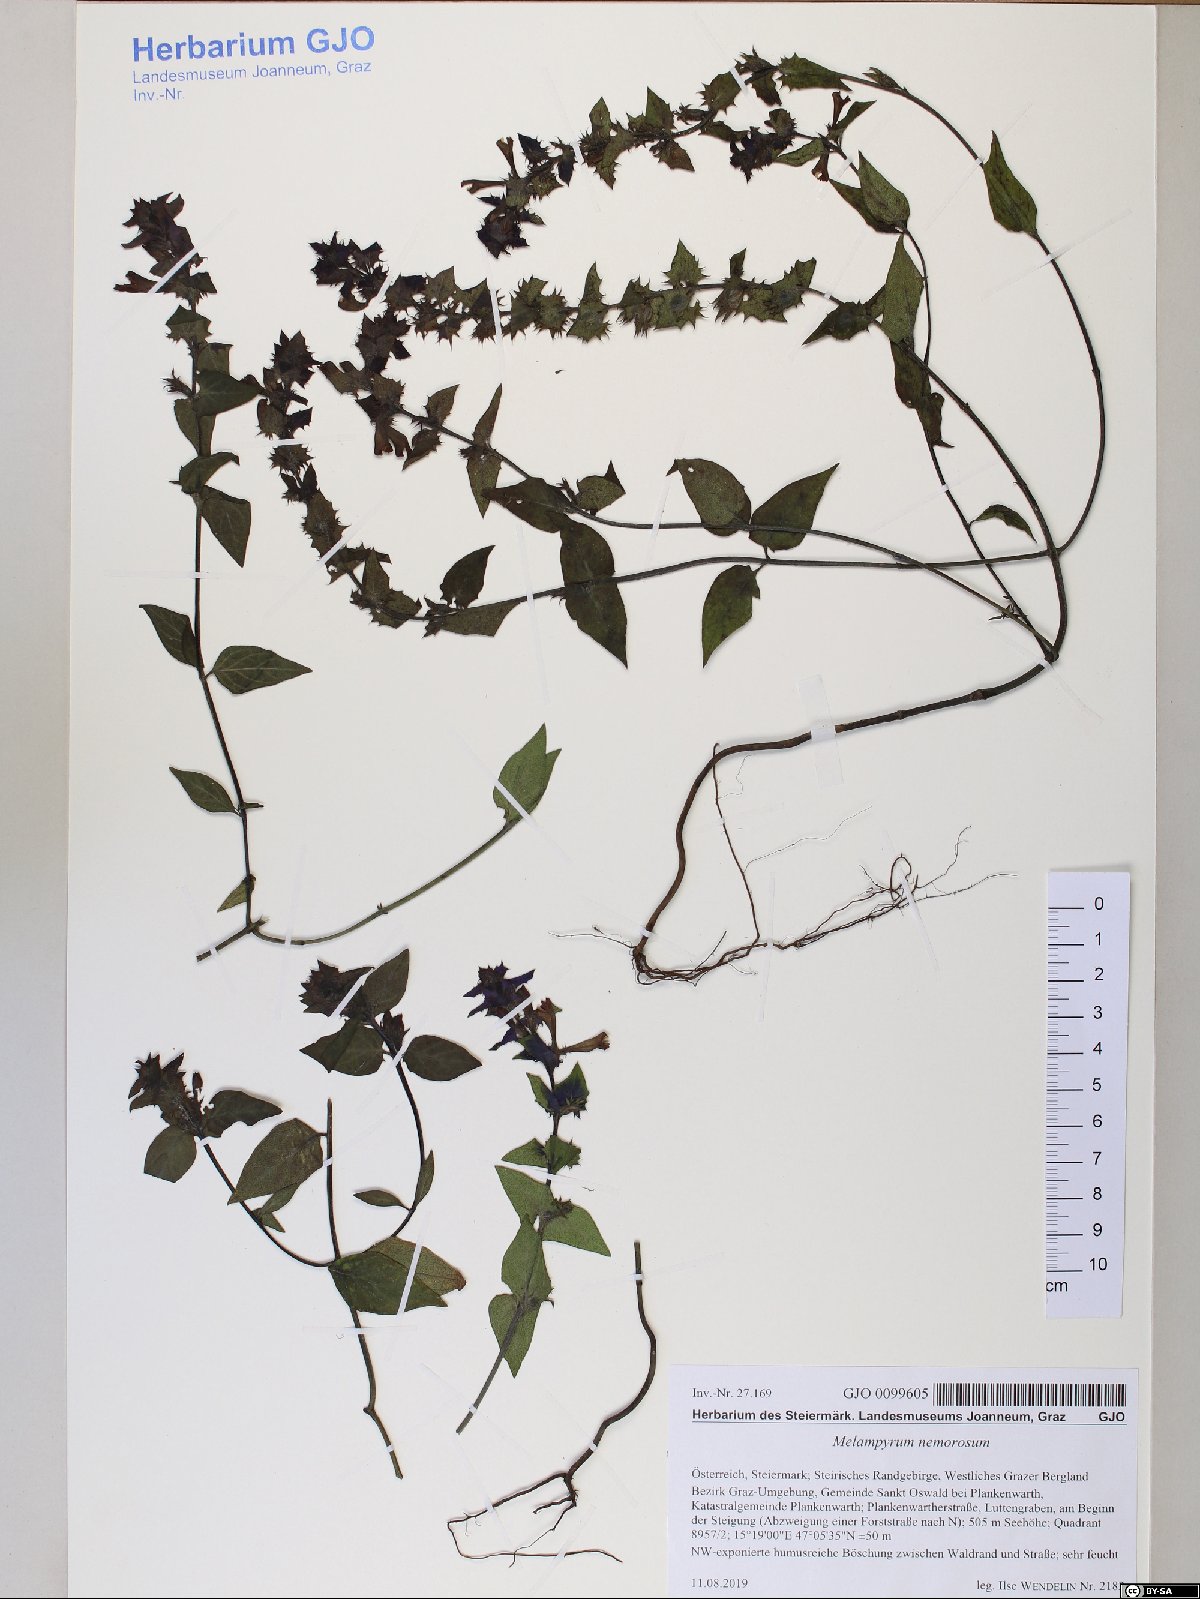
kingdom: Plantae
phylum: Tracheophyta
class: Magnoliopsida
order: Lamiales
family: Orobanchaceae
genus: Melampyrum
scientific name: Melampyrum nemorosum
